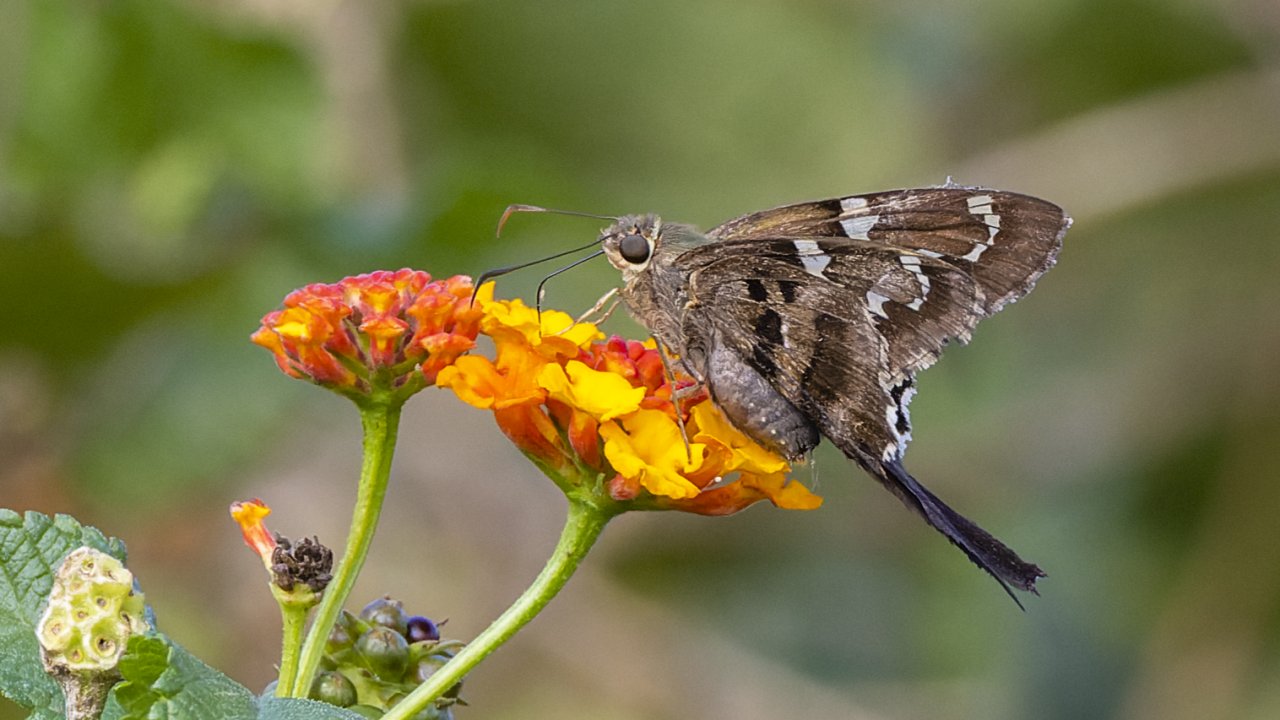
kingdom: Animalia
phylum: Arthropoda
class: Insecta
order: Lepidoptera
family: Hesperiidae
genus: Urbanus
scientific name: Urbanus proteus
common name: Long-tailed Skipper
